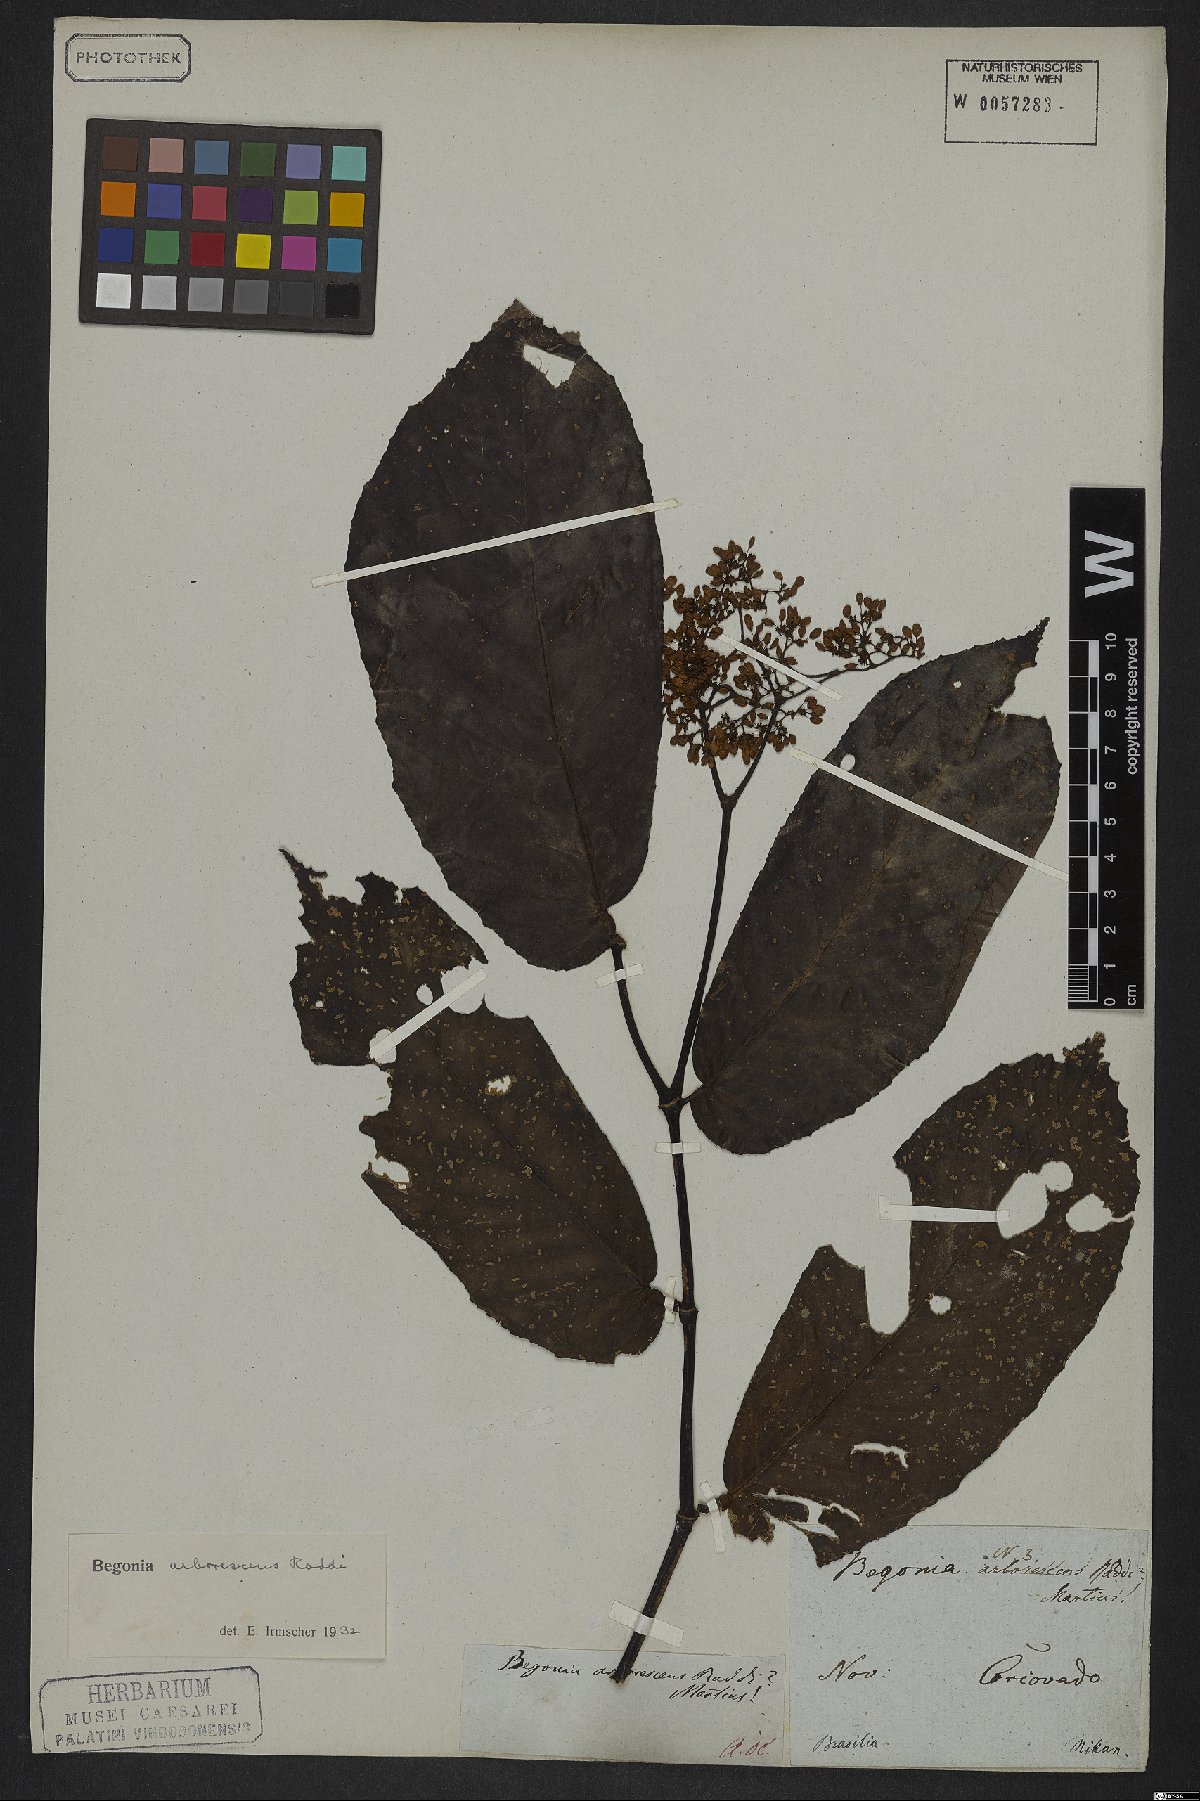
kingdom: Plantae
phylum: Tracheophyta
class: Magnoliopsida
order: Cucurbitales
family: Begoniaceae
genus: Begonia
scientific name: Begonia arborescens
